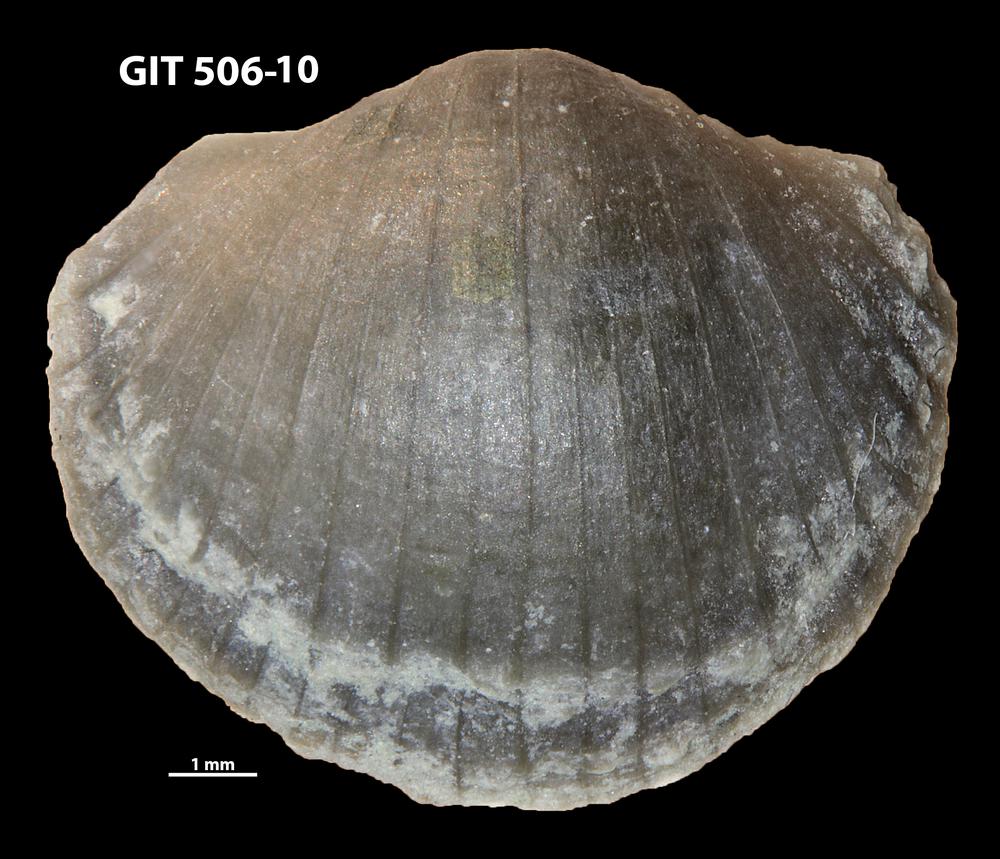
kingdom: Animalia
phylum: Brachiopoda
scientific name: Brachiopoda
